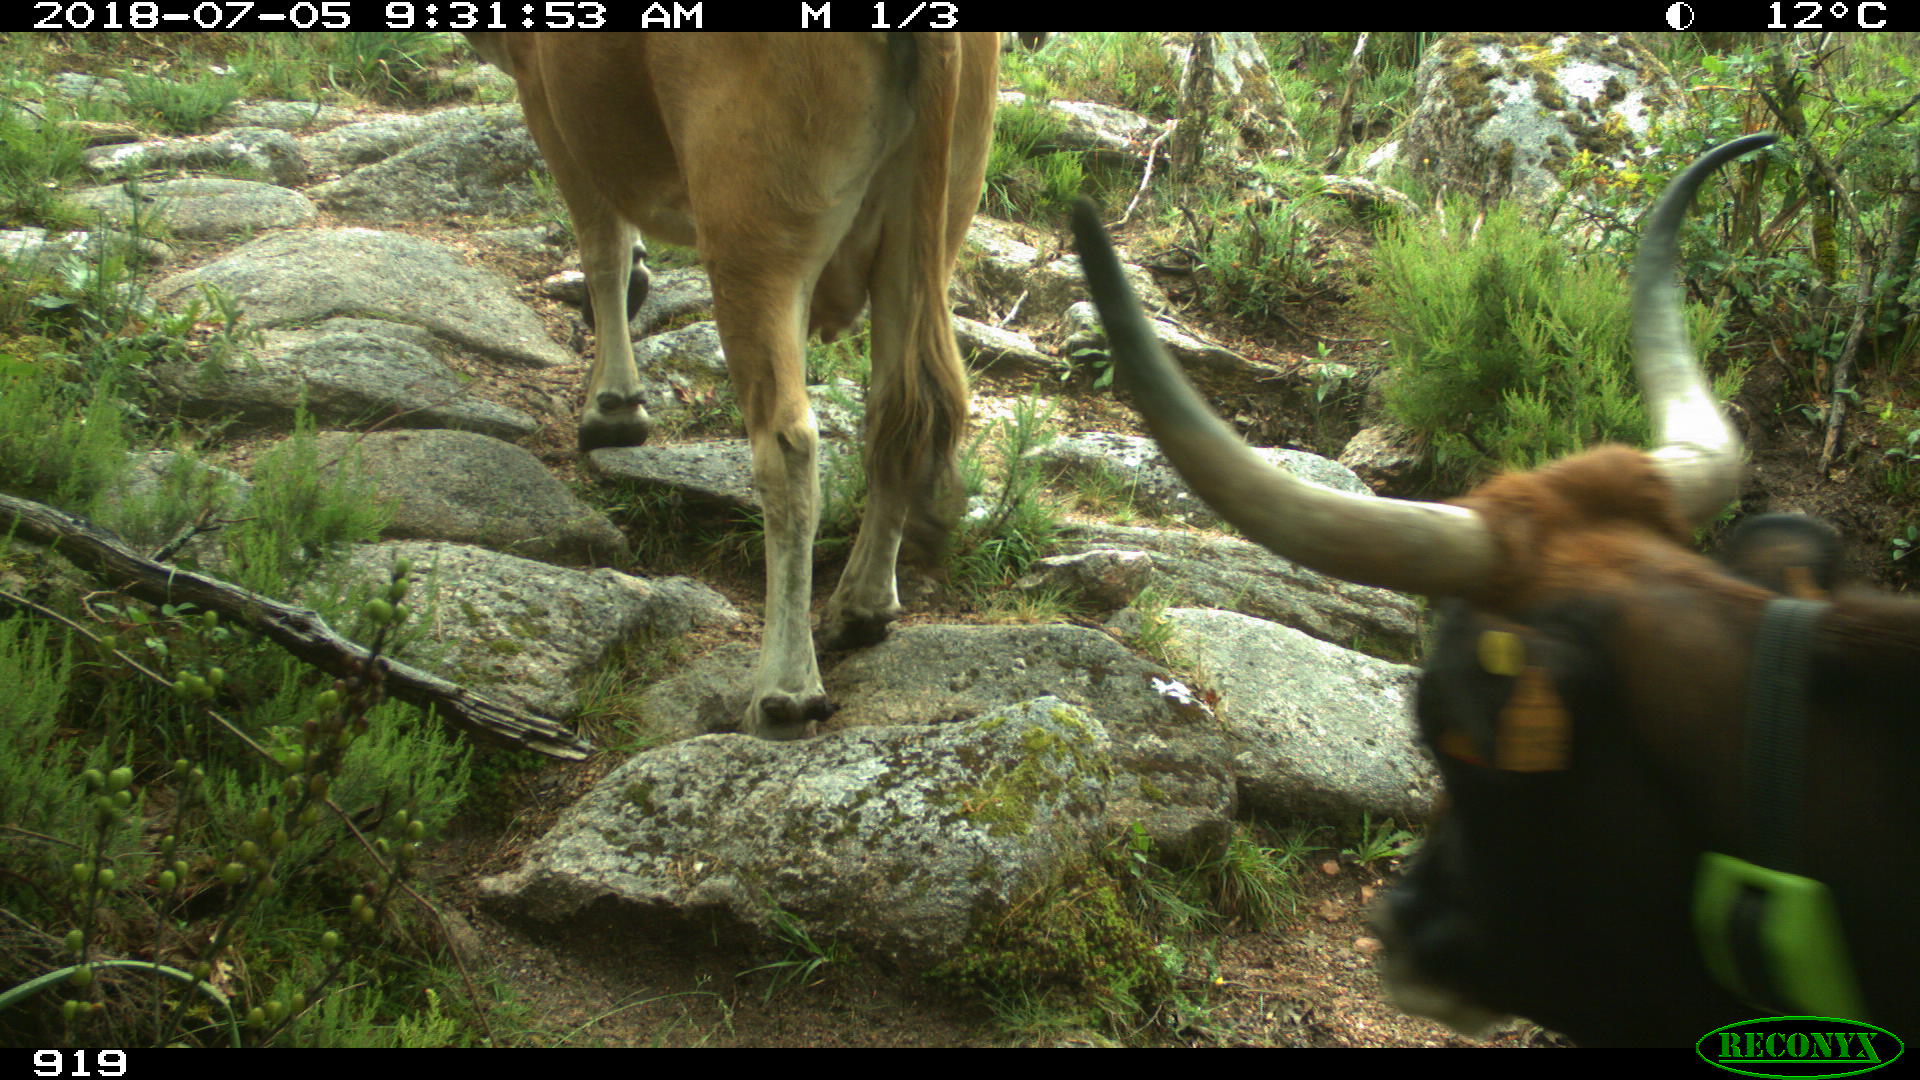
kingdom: Animalia
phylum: Chordata
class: Mammalia
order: Artiodactyla
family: Bovidae
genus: Bos
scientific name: Bos taurus
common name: Domesticated cattle
